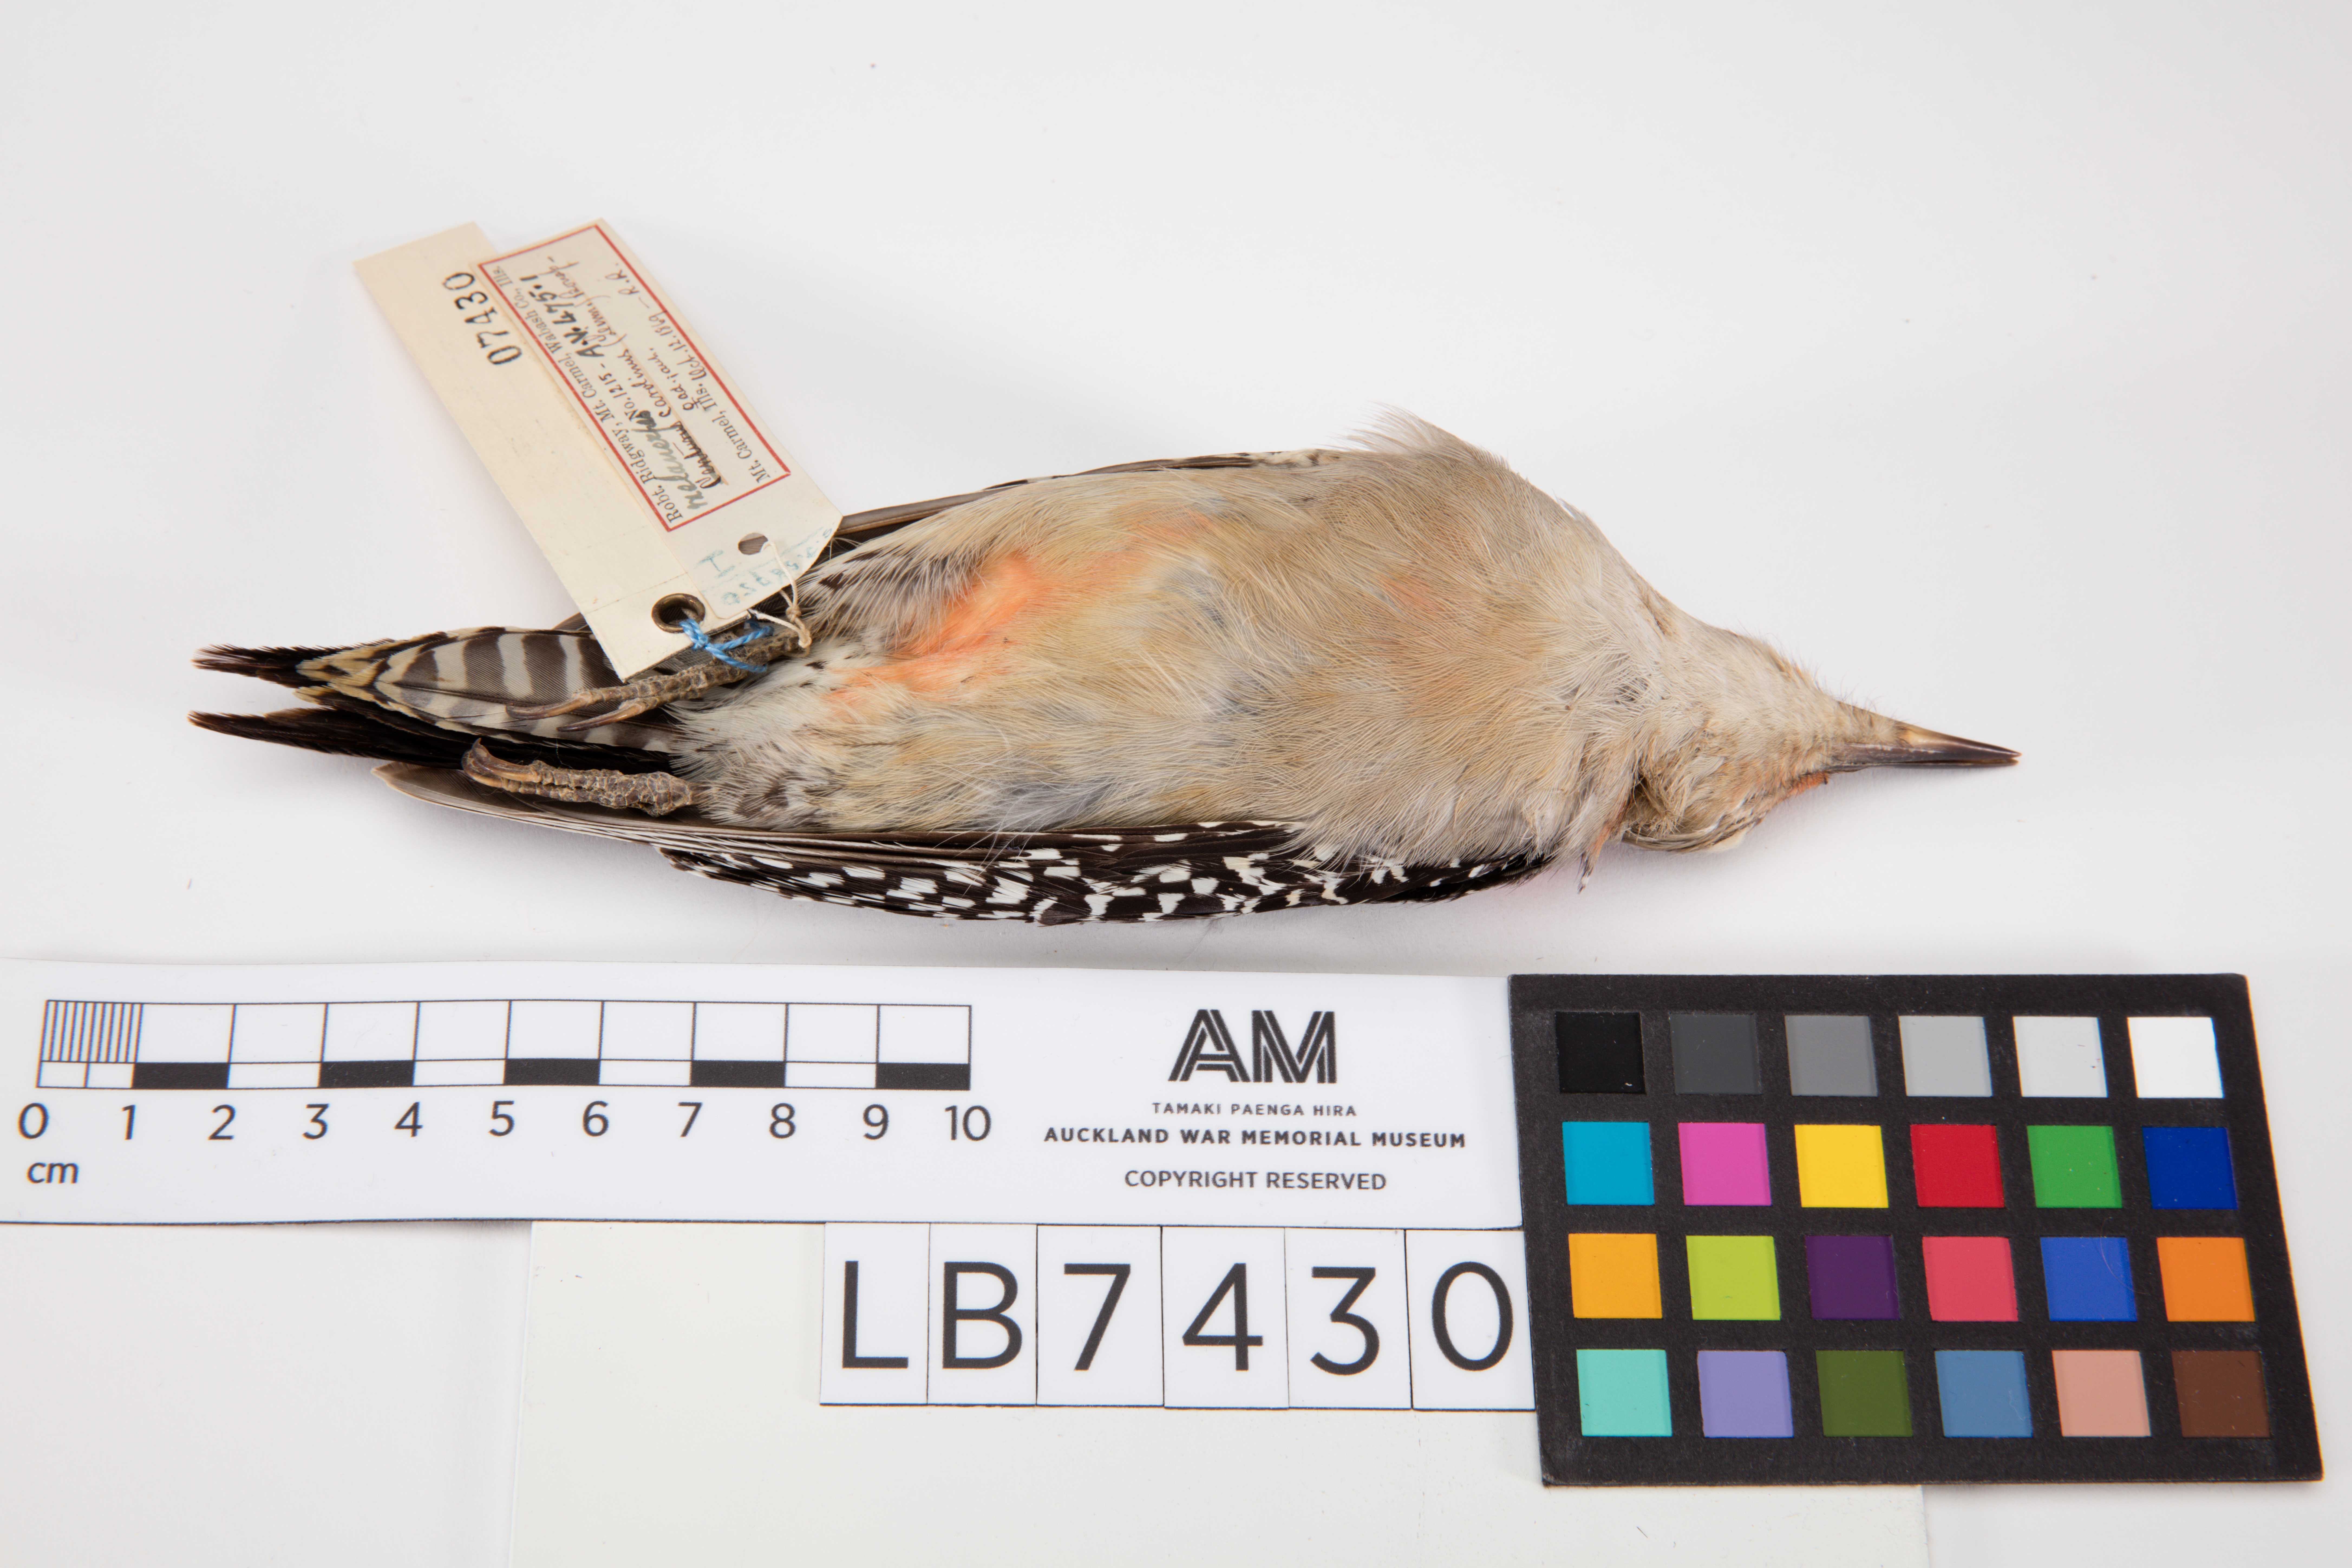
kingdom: Animalia
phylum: Chordata
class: Aves
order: Piciformes
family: Picidae
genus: Melanerpes
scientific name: Melanerpes carolinus
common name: Red-bellied woodpecker
